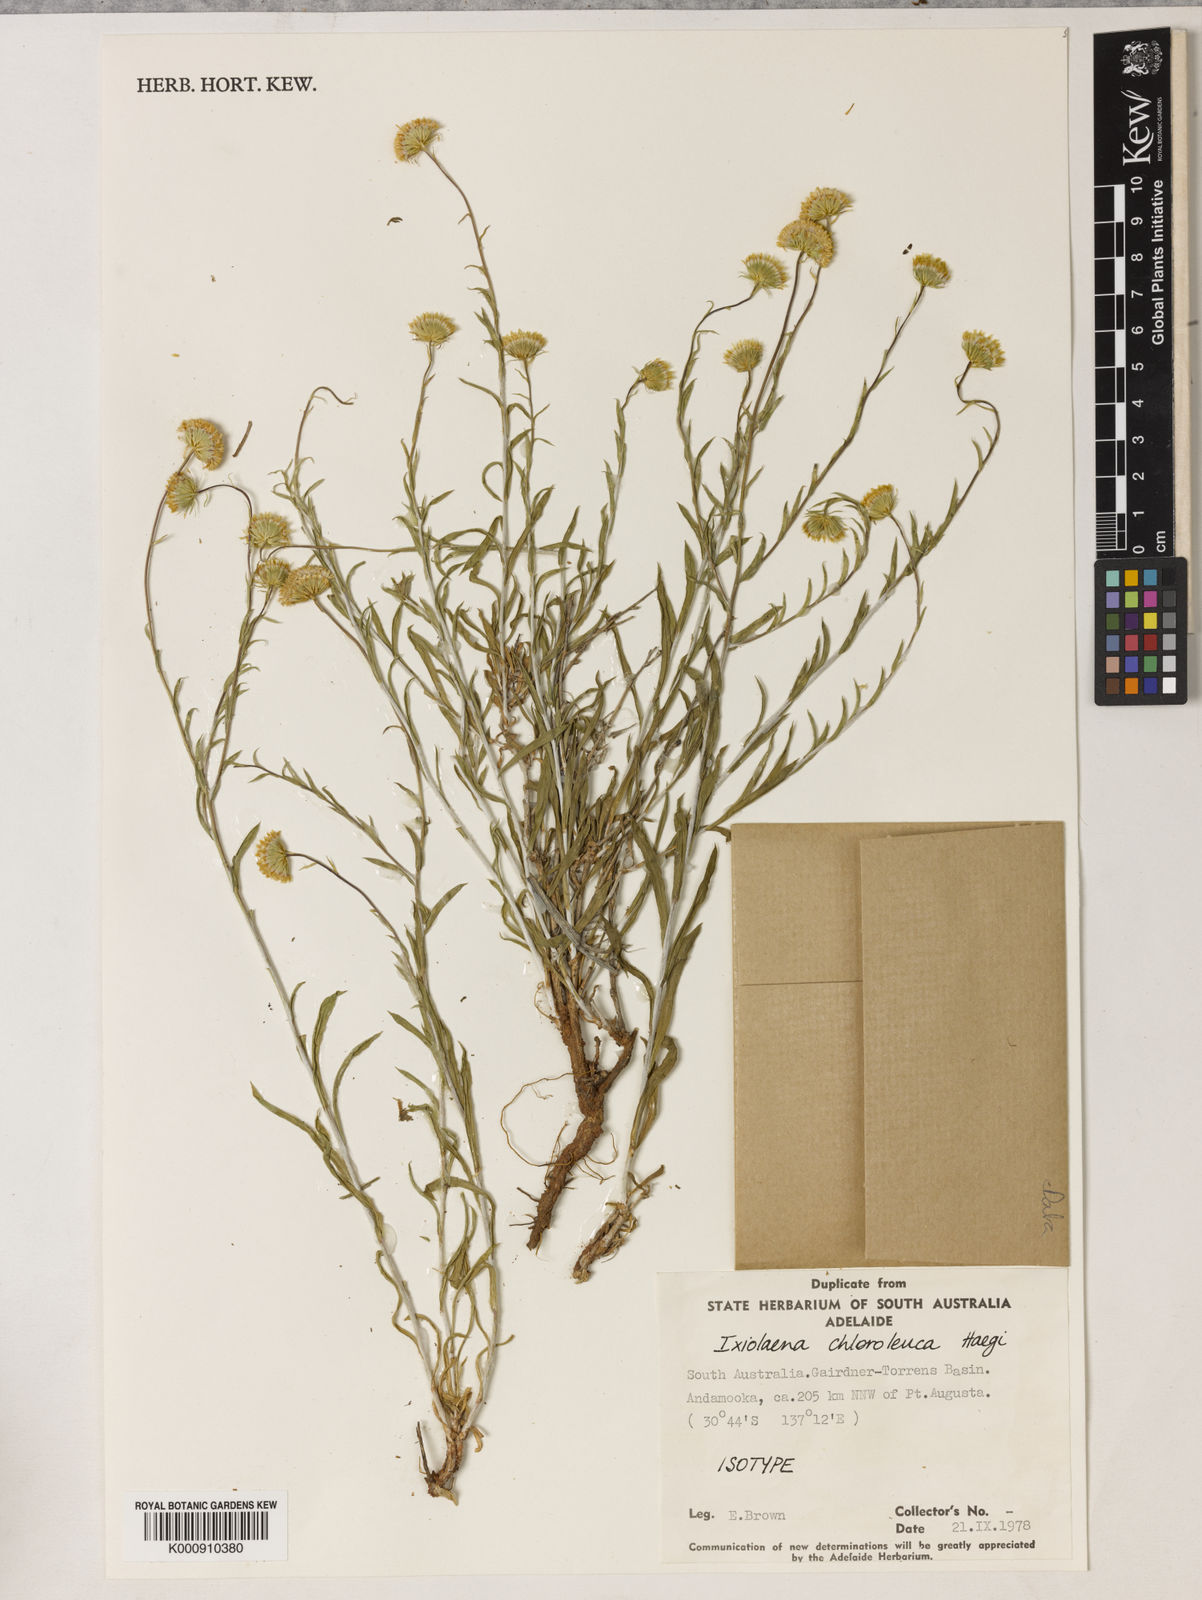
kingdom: Plantae
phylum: Tracheophyta
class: Magnoliopsida
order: Asterales
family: Asteraceae
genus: Leiocarpa
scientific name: Leiocarpa
